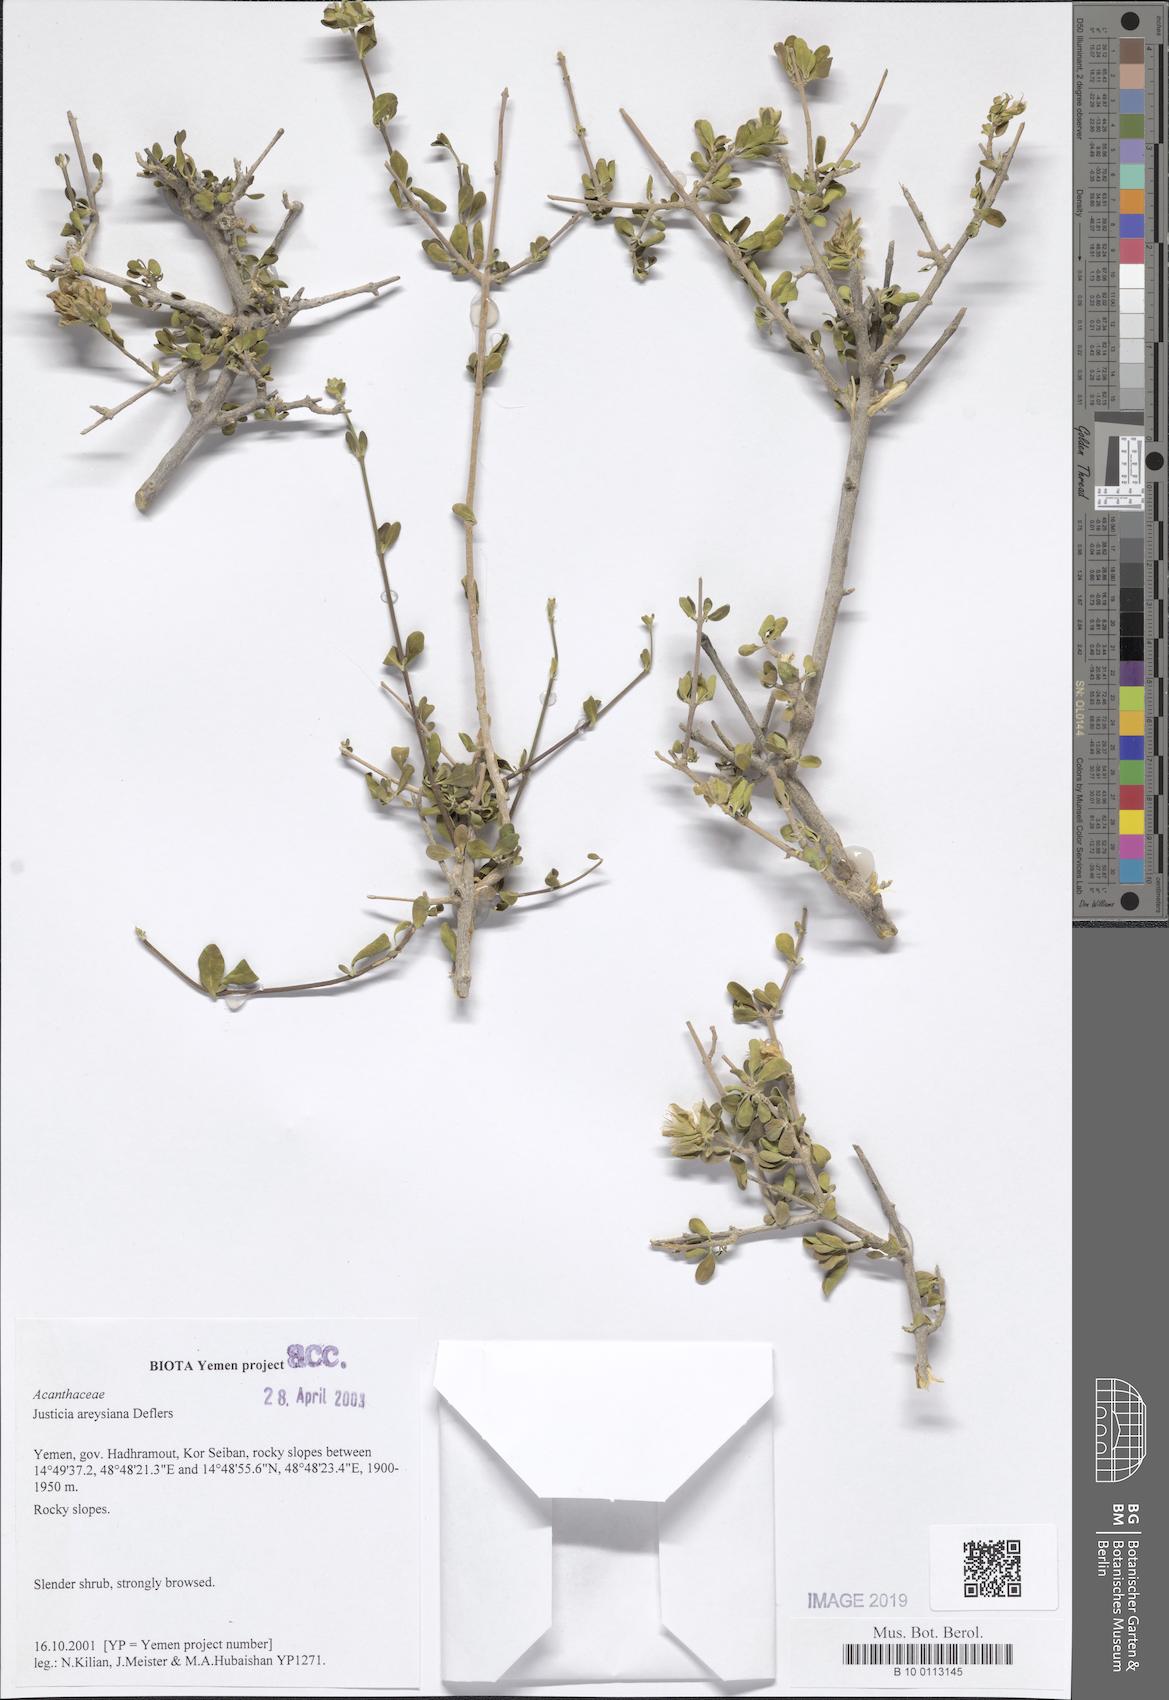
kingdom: Plantae
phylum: Tracheophyta
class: Magnoliopsida
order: Lamiales
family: Acanthaceae
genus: Justicia
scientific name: Justicia areysiana
